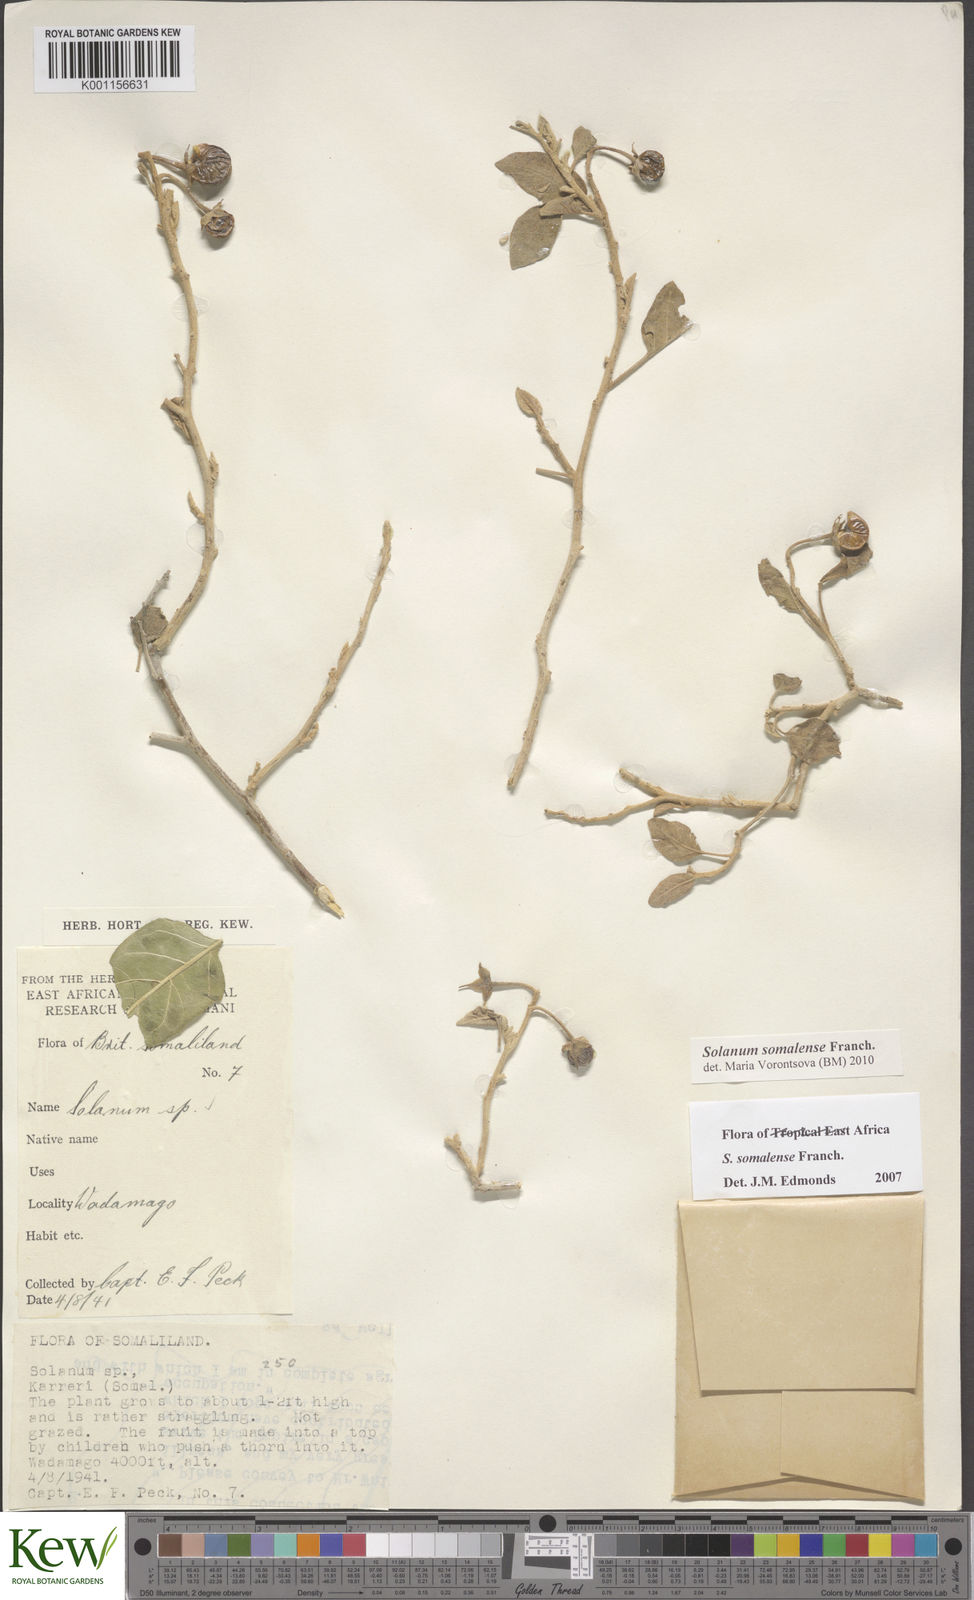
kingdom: Plantae
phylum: Tracheophyta
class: Magnoliopsida
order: Solanales
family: Solanaceae
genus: Solanum
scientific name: Solanum somalense
